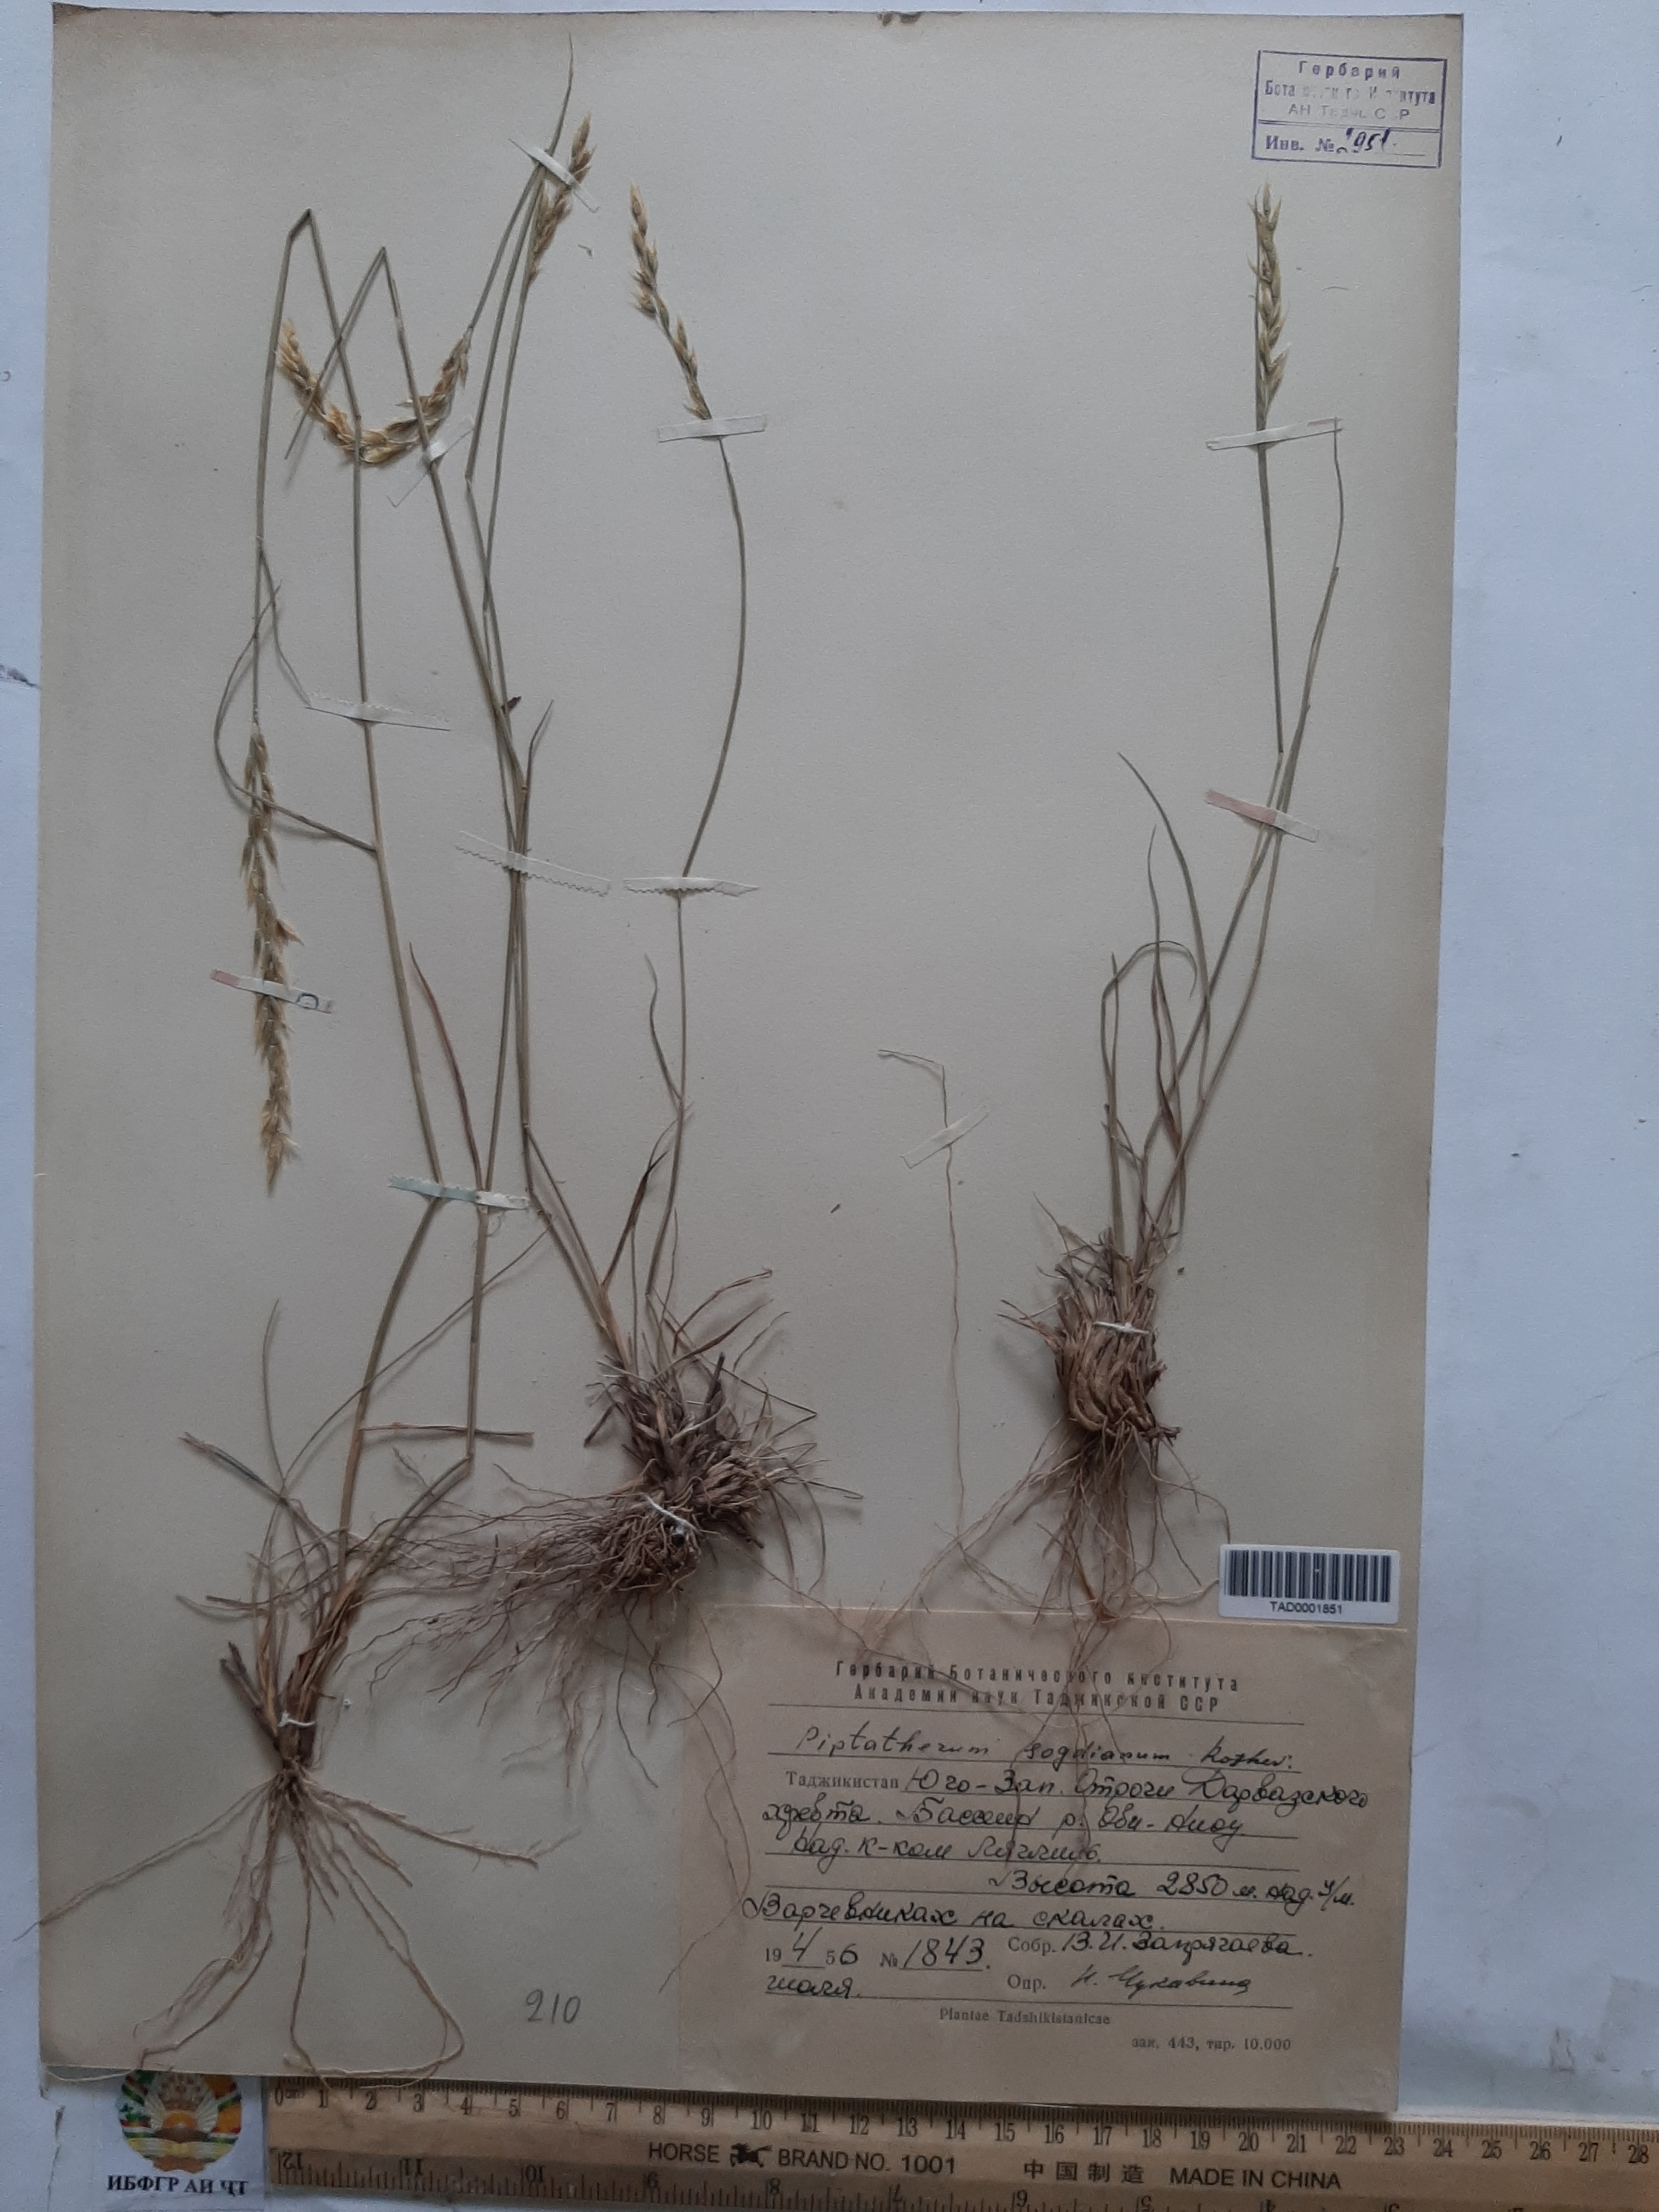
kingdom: Plantae
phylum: Tracheophyta
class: Liliopsida
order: Poales
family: Poaceae
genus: Piptatherum
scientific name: Piptatherum sogdianum
